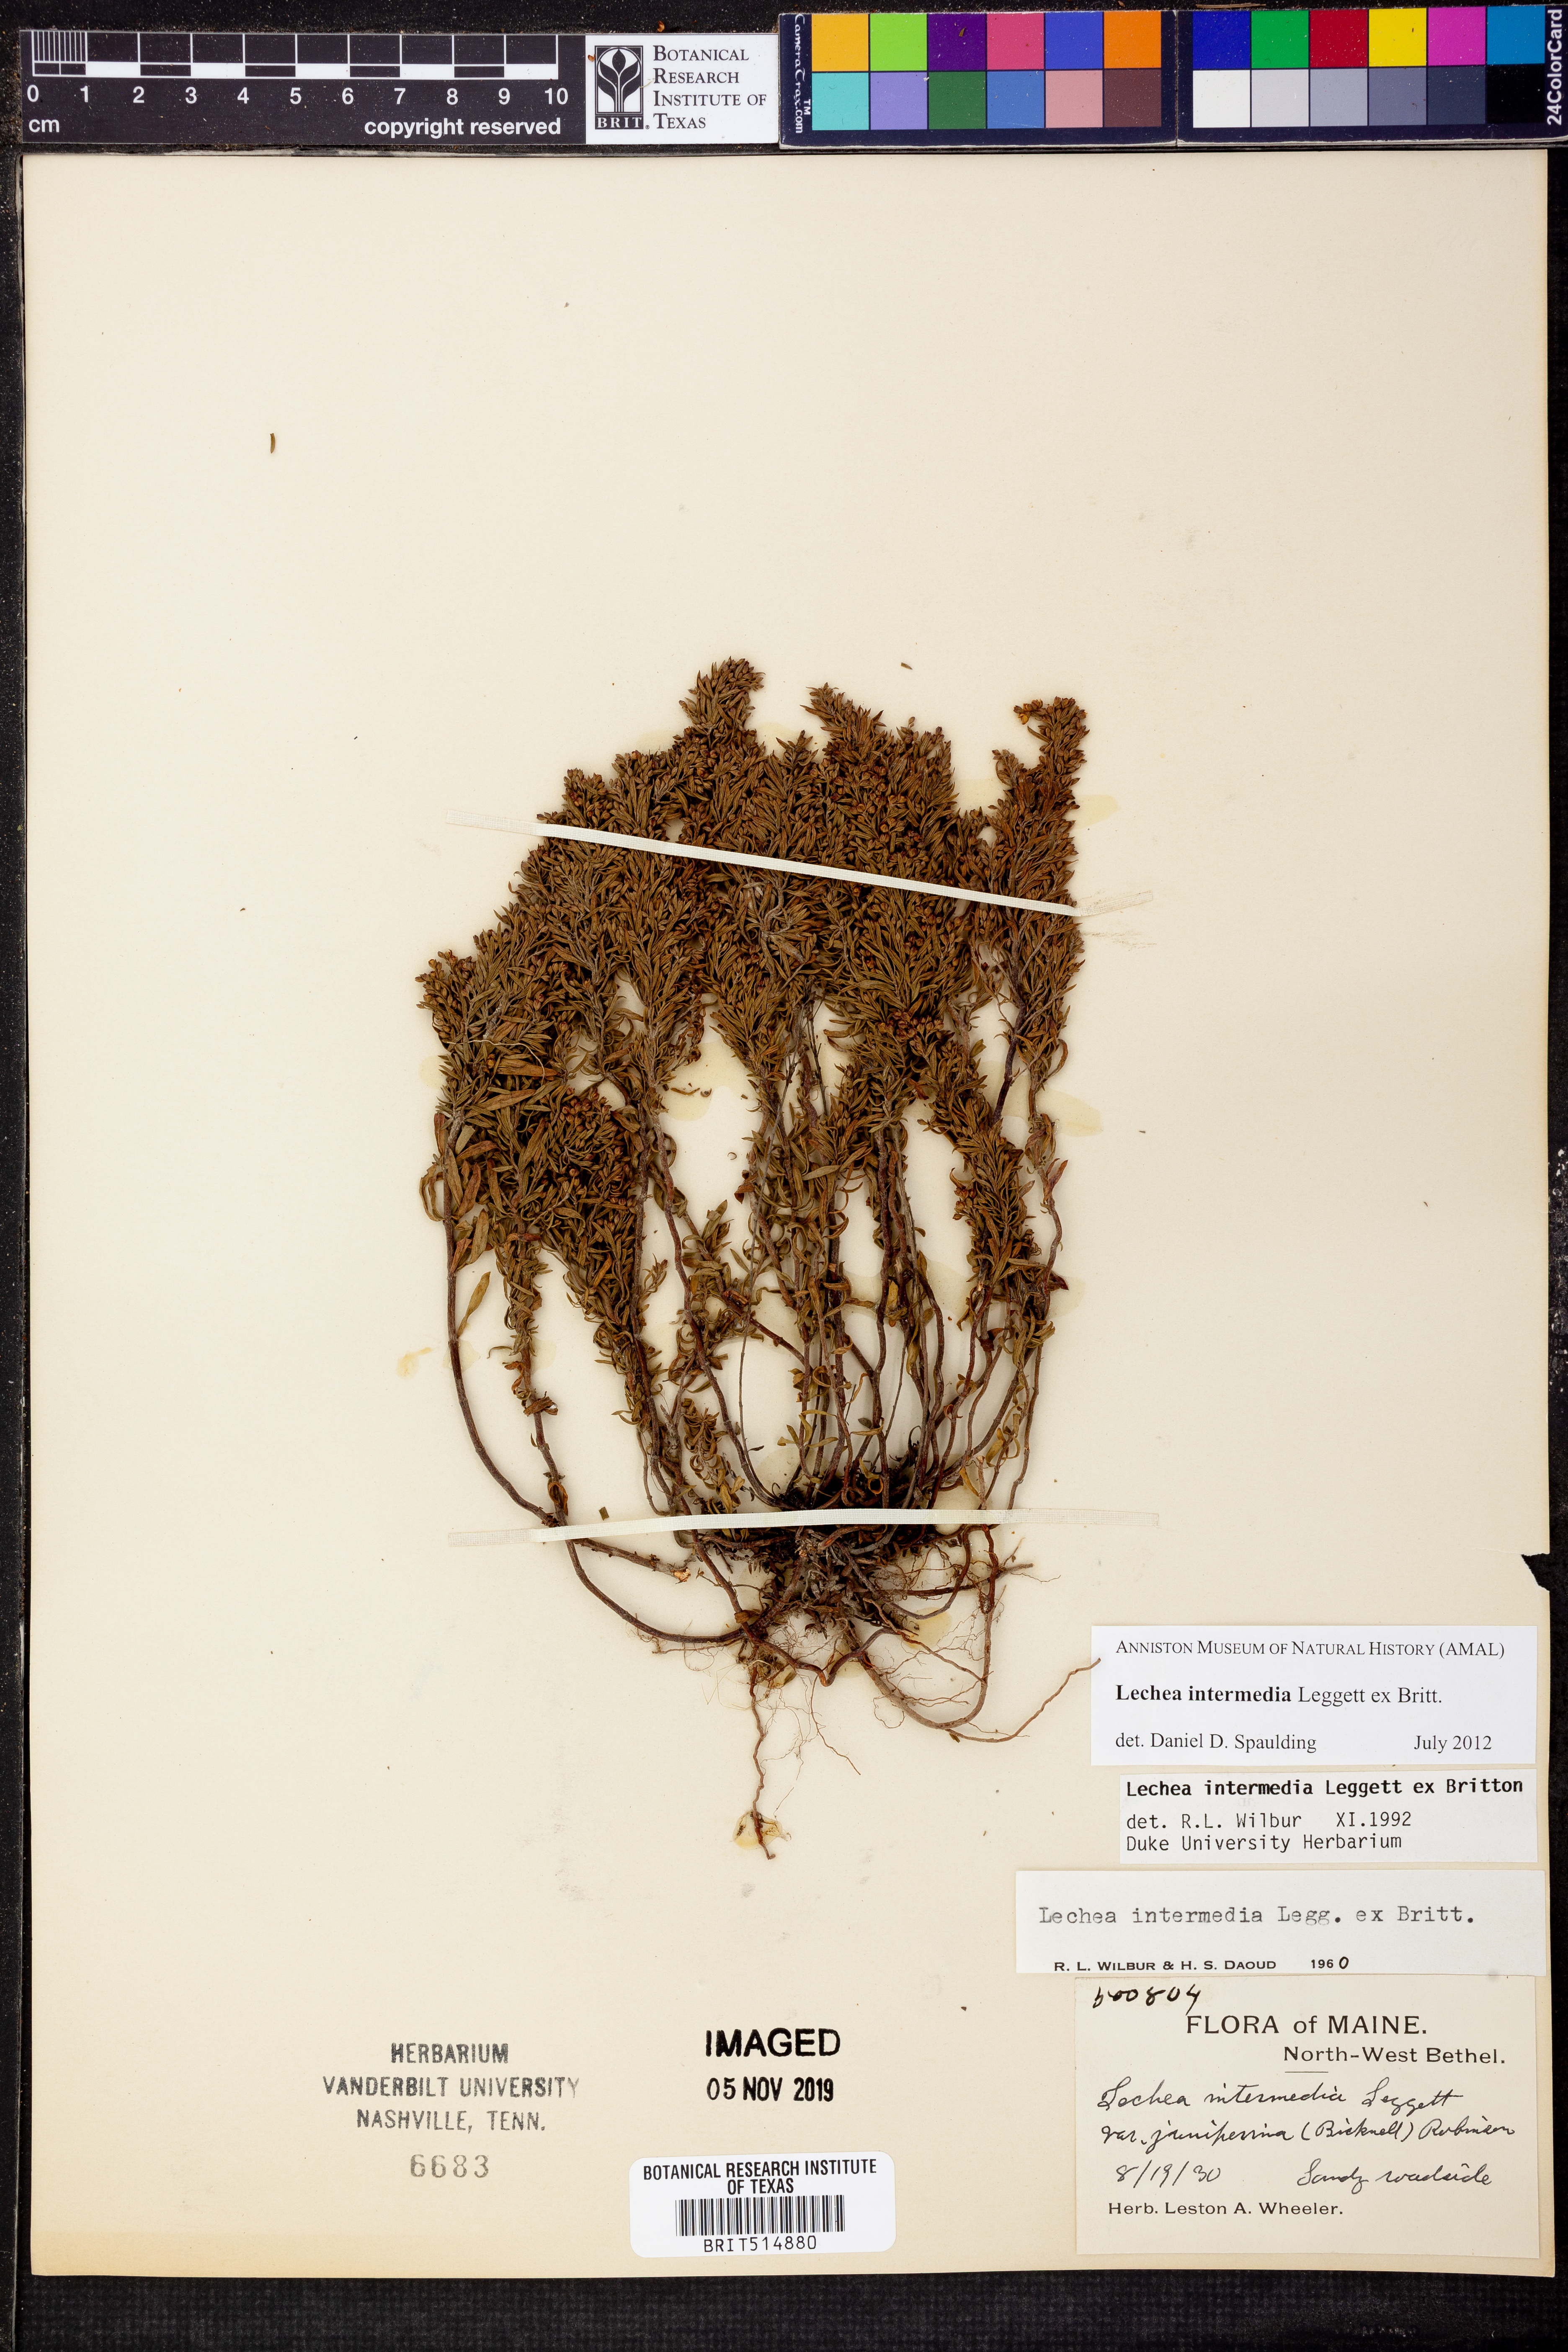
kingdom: Plantae
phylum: Tracheophyta
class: Magnoliopsida
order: Malvales
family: Cistaceae
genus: Lechea
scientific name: Lechea intermedia
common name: Intermediate pinweed
